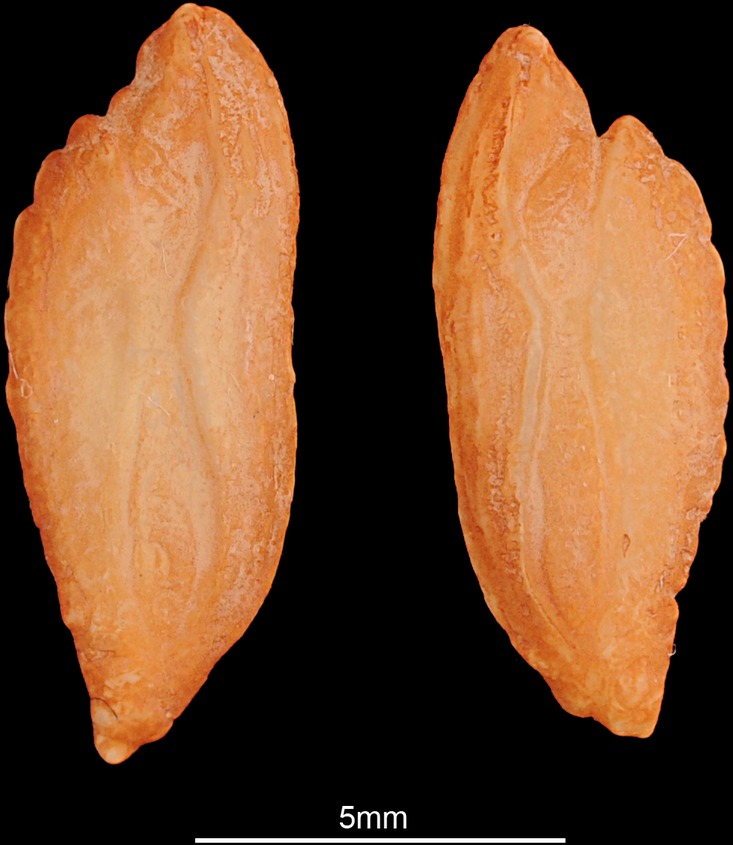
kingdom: Animalia
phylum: Chordata
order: Gadiformes
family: Lotidae
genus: Lota
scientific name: Lota lota
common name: Burbot
